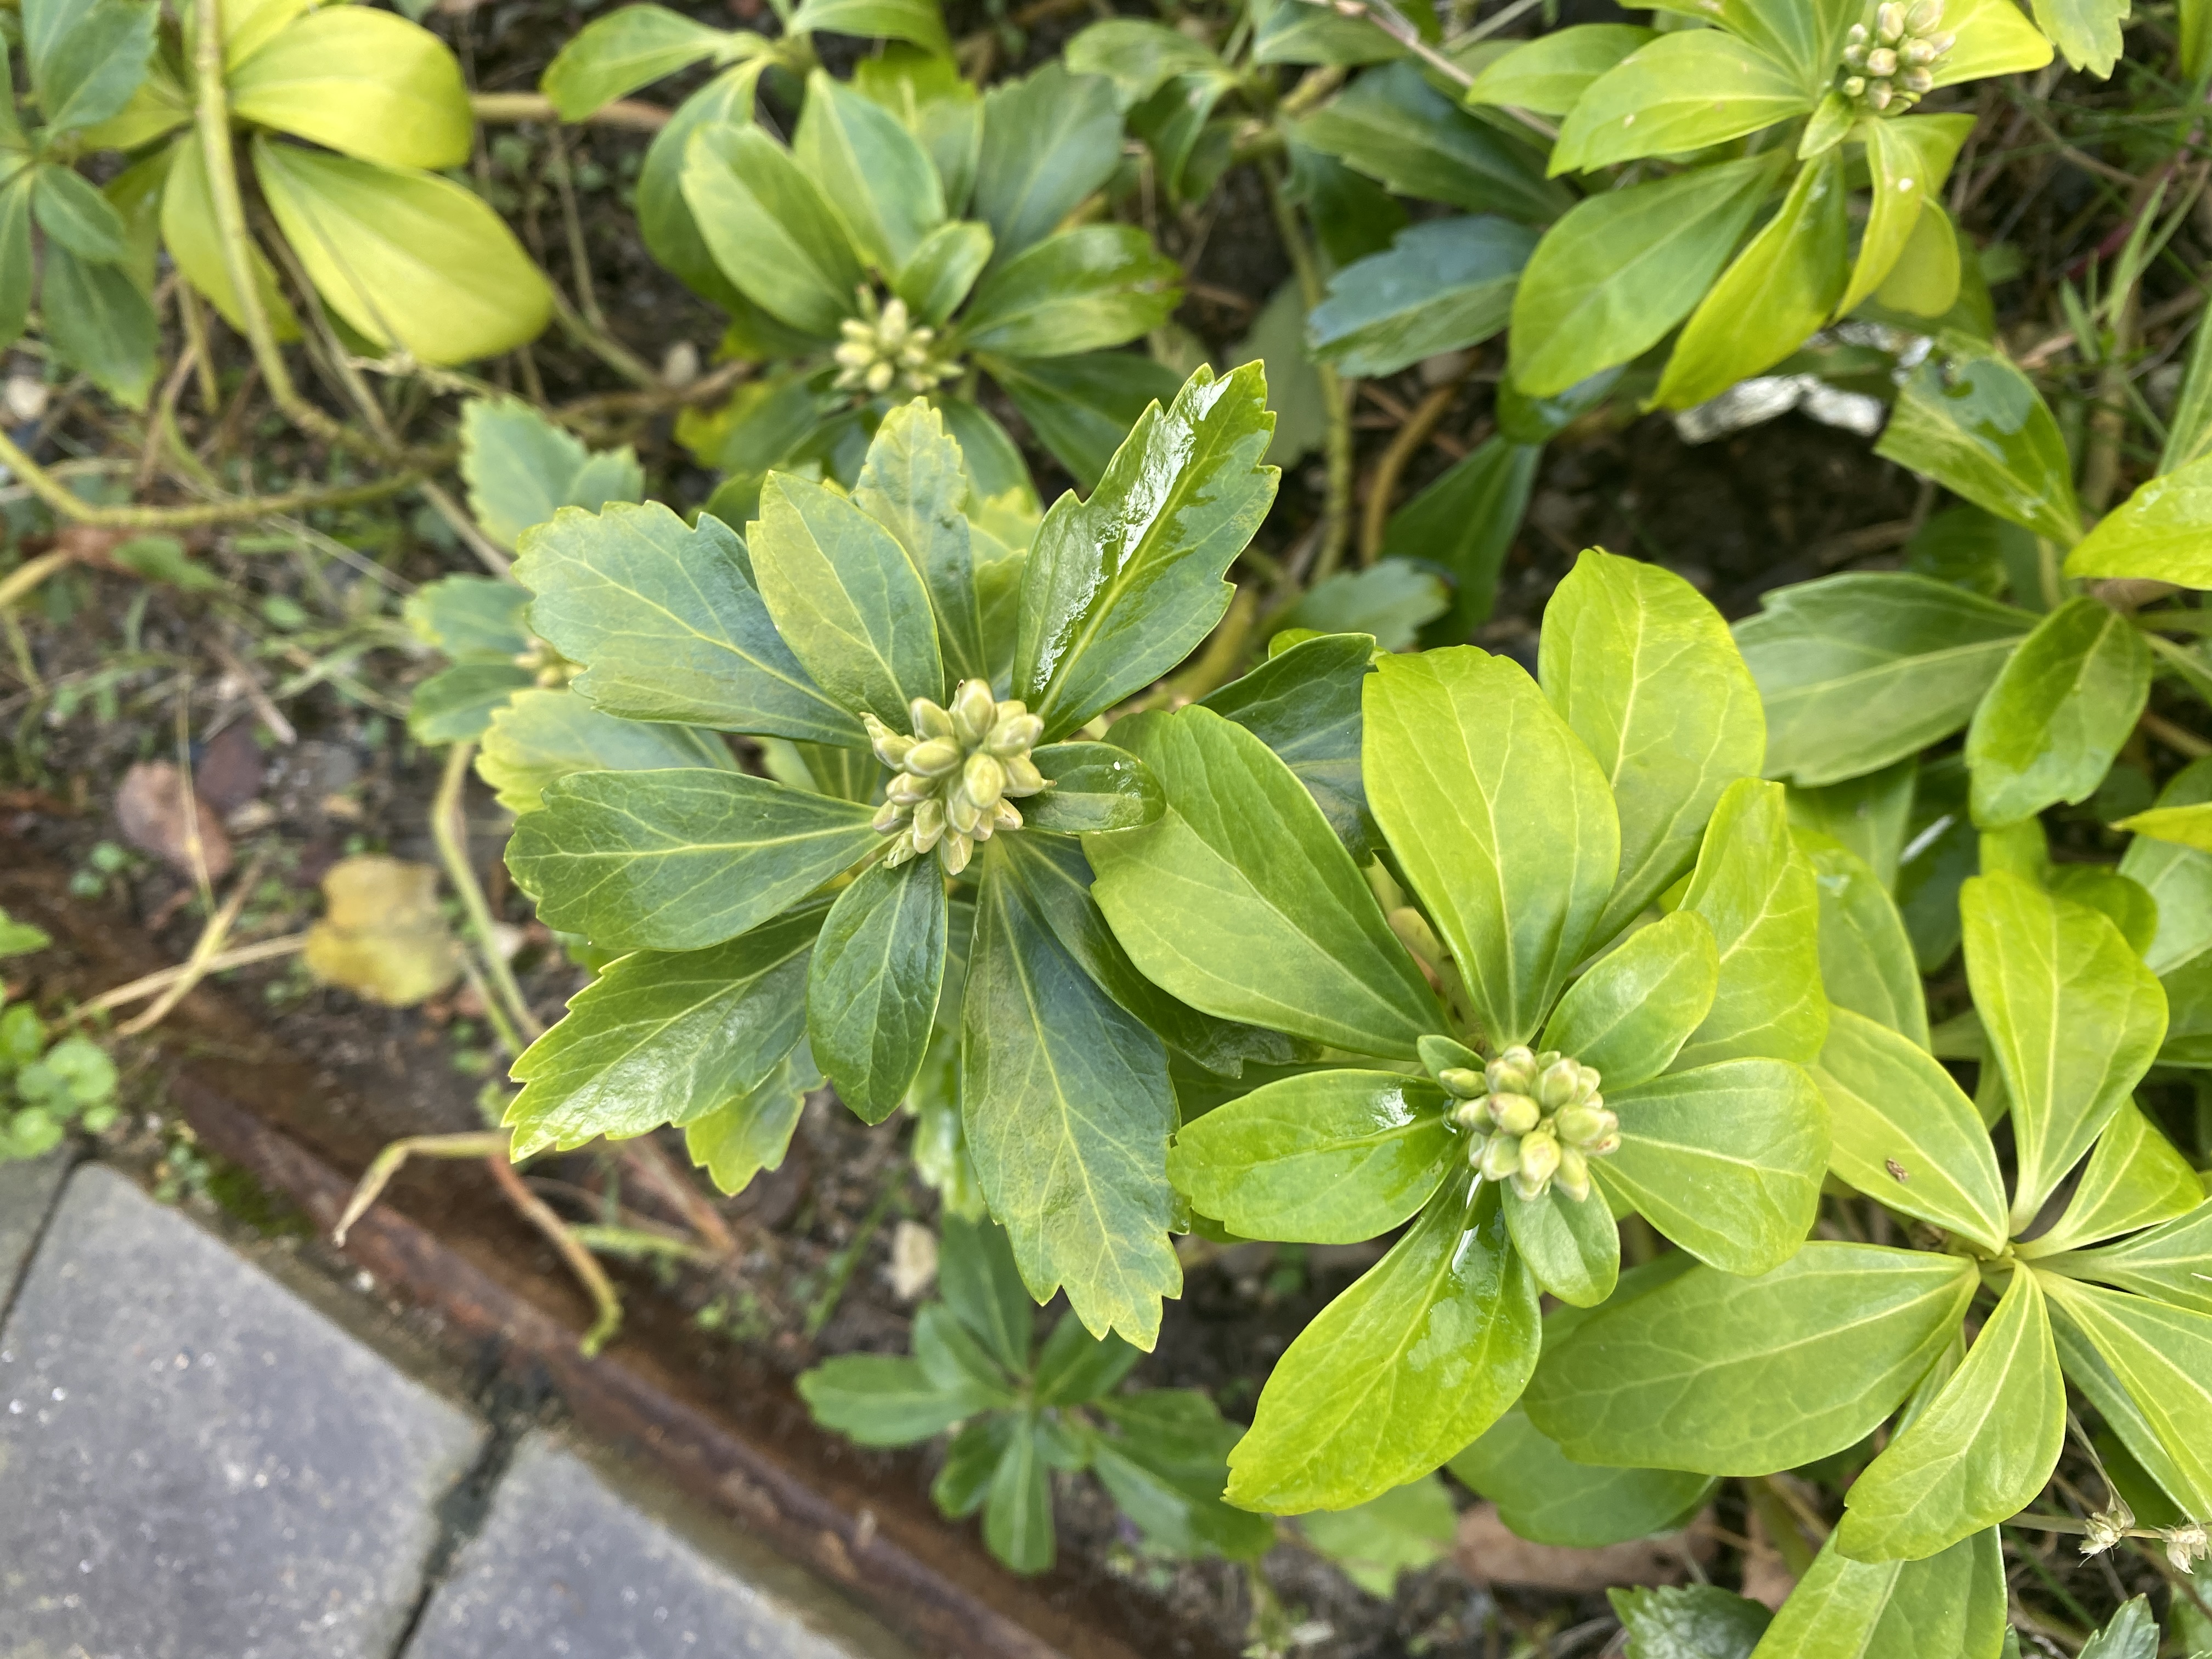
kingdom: Plantae
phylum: Tracheophyta
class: Magnoliopsida
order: Buxales
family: Buxaceae
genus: Pachysandra
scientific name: Pachysandra terminalis
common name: Vinterglans
